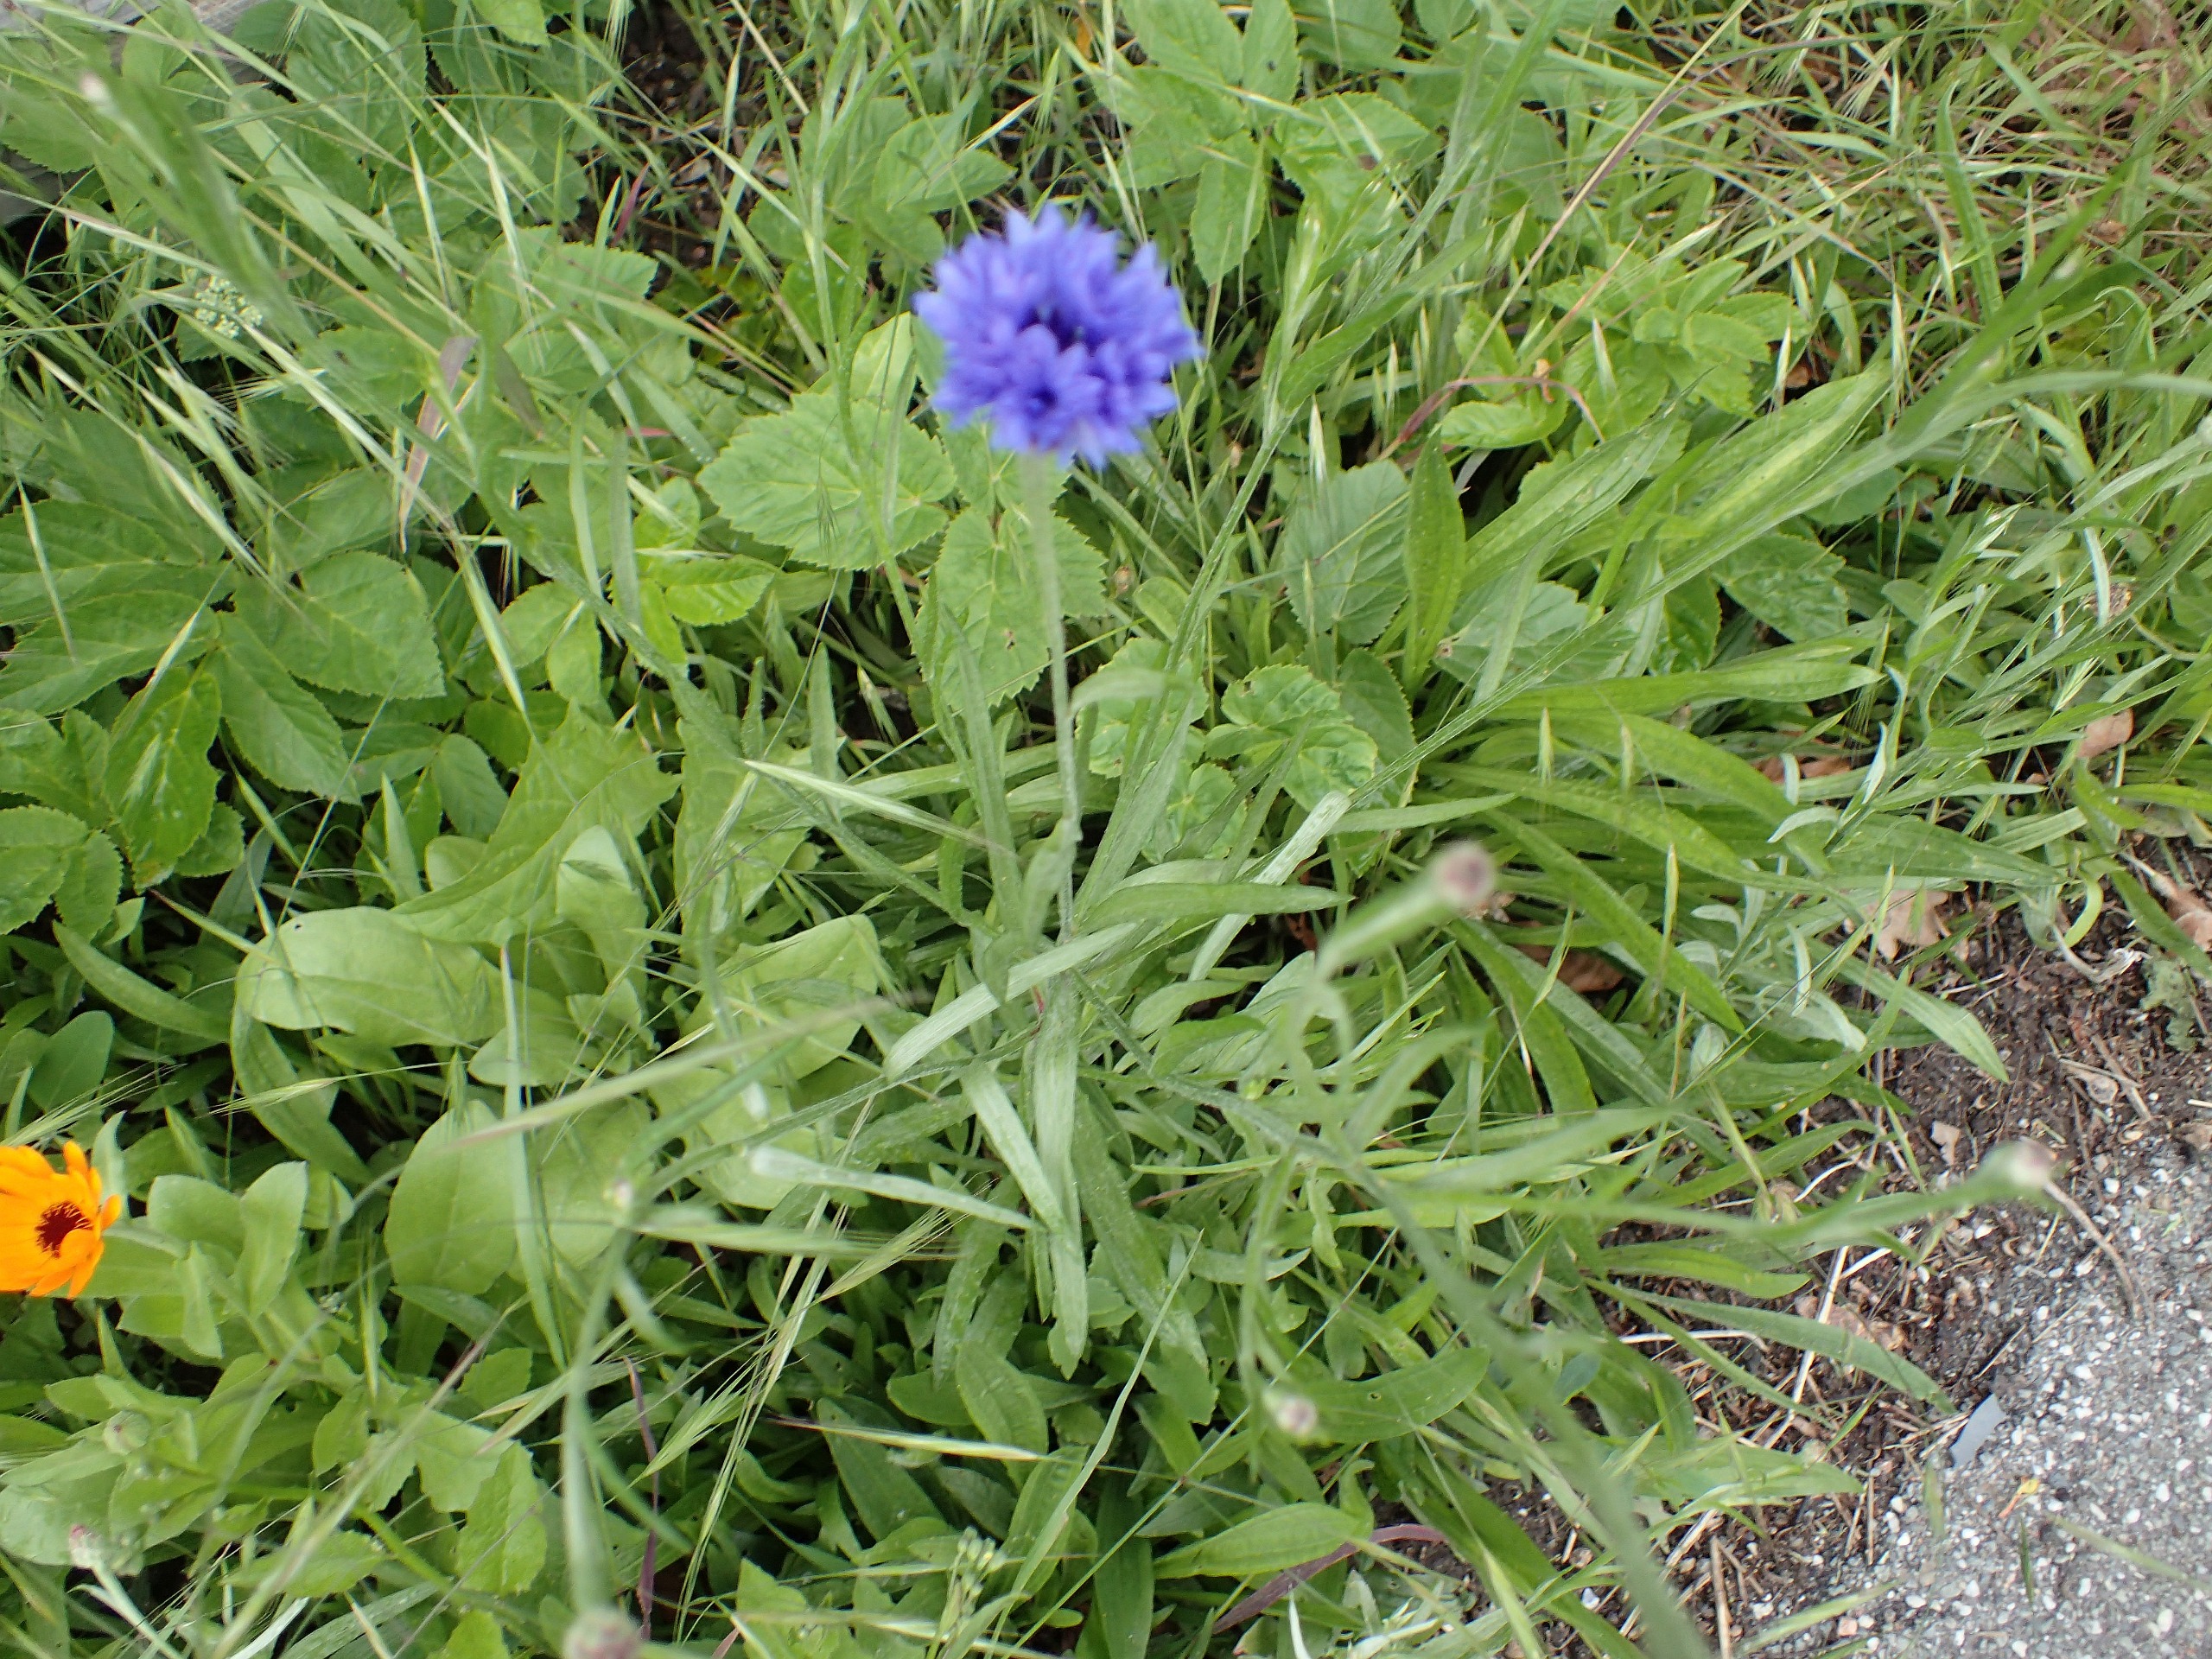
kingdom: Plantae
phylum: Tracheophyta
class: Magnoliopsida
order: Asterales
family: Asteraceae
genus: Centaurea
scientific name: Centaurea cyanus
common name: Kornblomst
